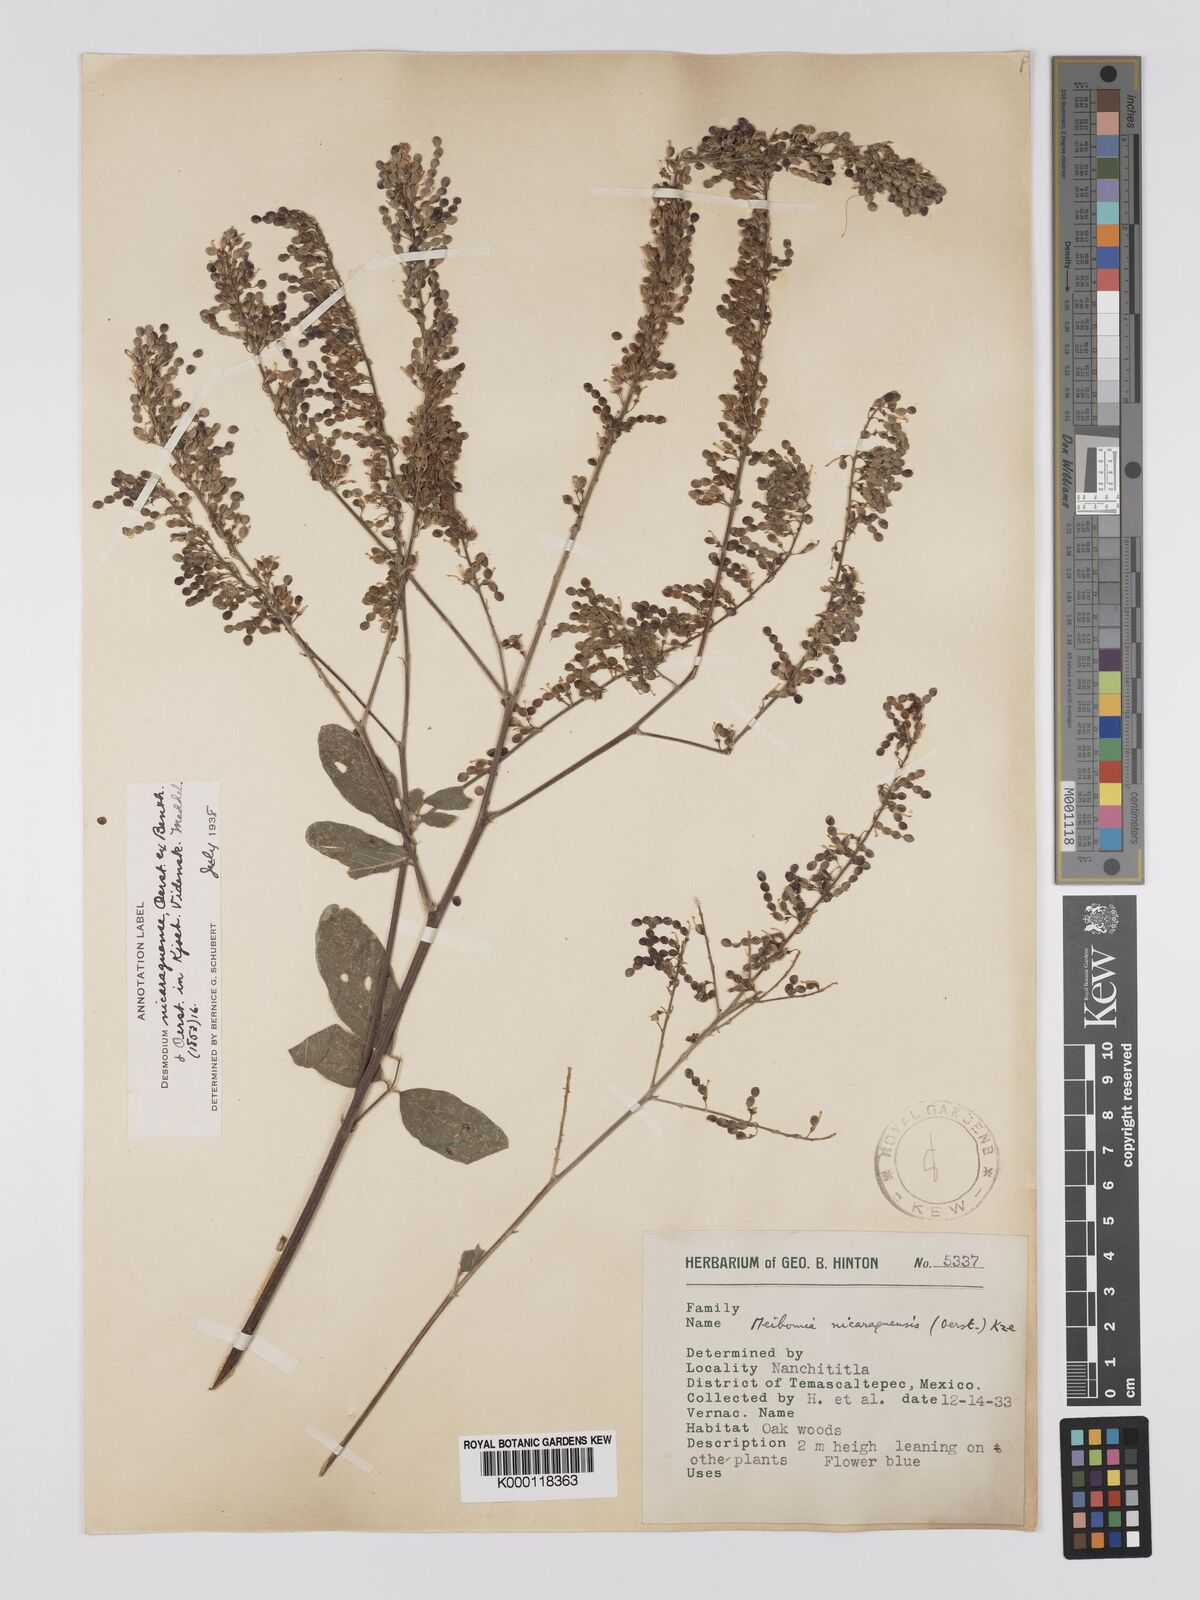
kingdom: Plantae
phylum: Tracheophyta
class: Magnoliopsida
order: Fabales
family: Fabaceae
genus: Desmodium
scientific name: Desmodium nicaraguense
